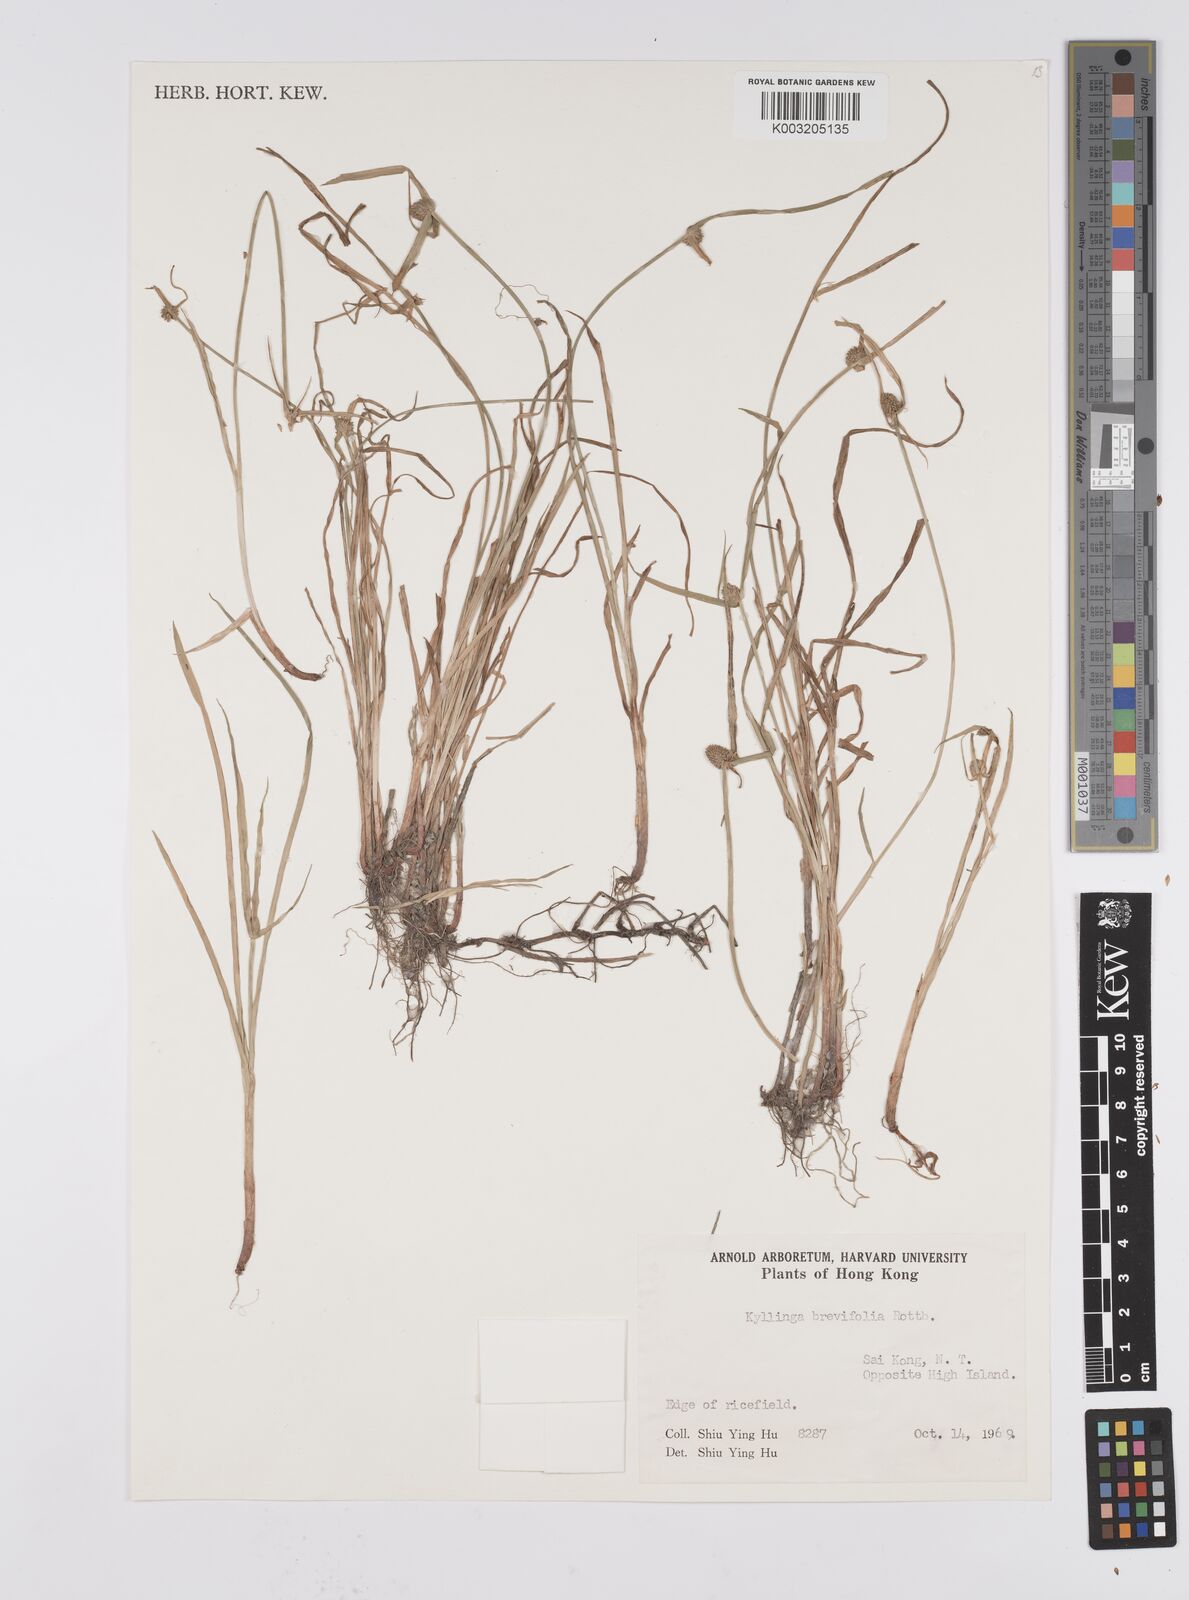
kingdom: Plantae
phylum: Tracheophyta
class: Liliopsida
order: Poales
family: Cyperaceae
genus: Cyperus
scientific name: Cyperus brevifolius
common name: Globe kyllinga
